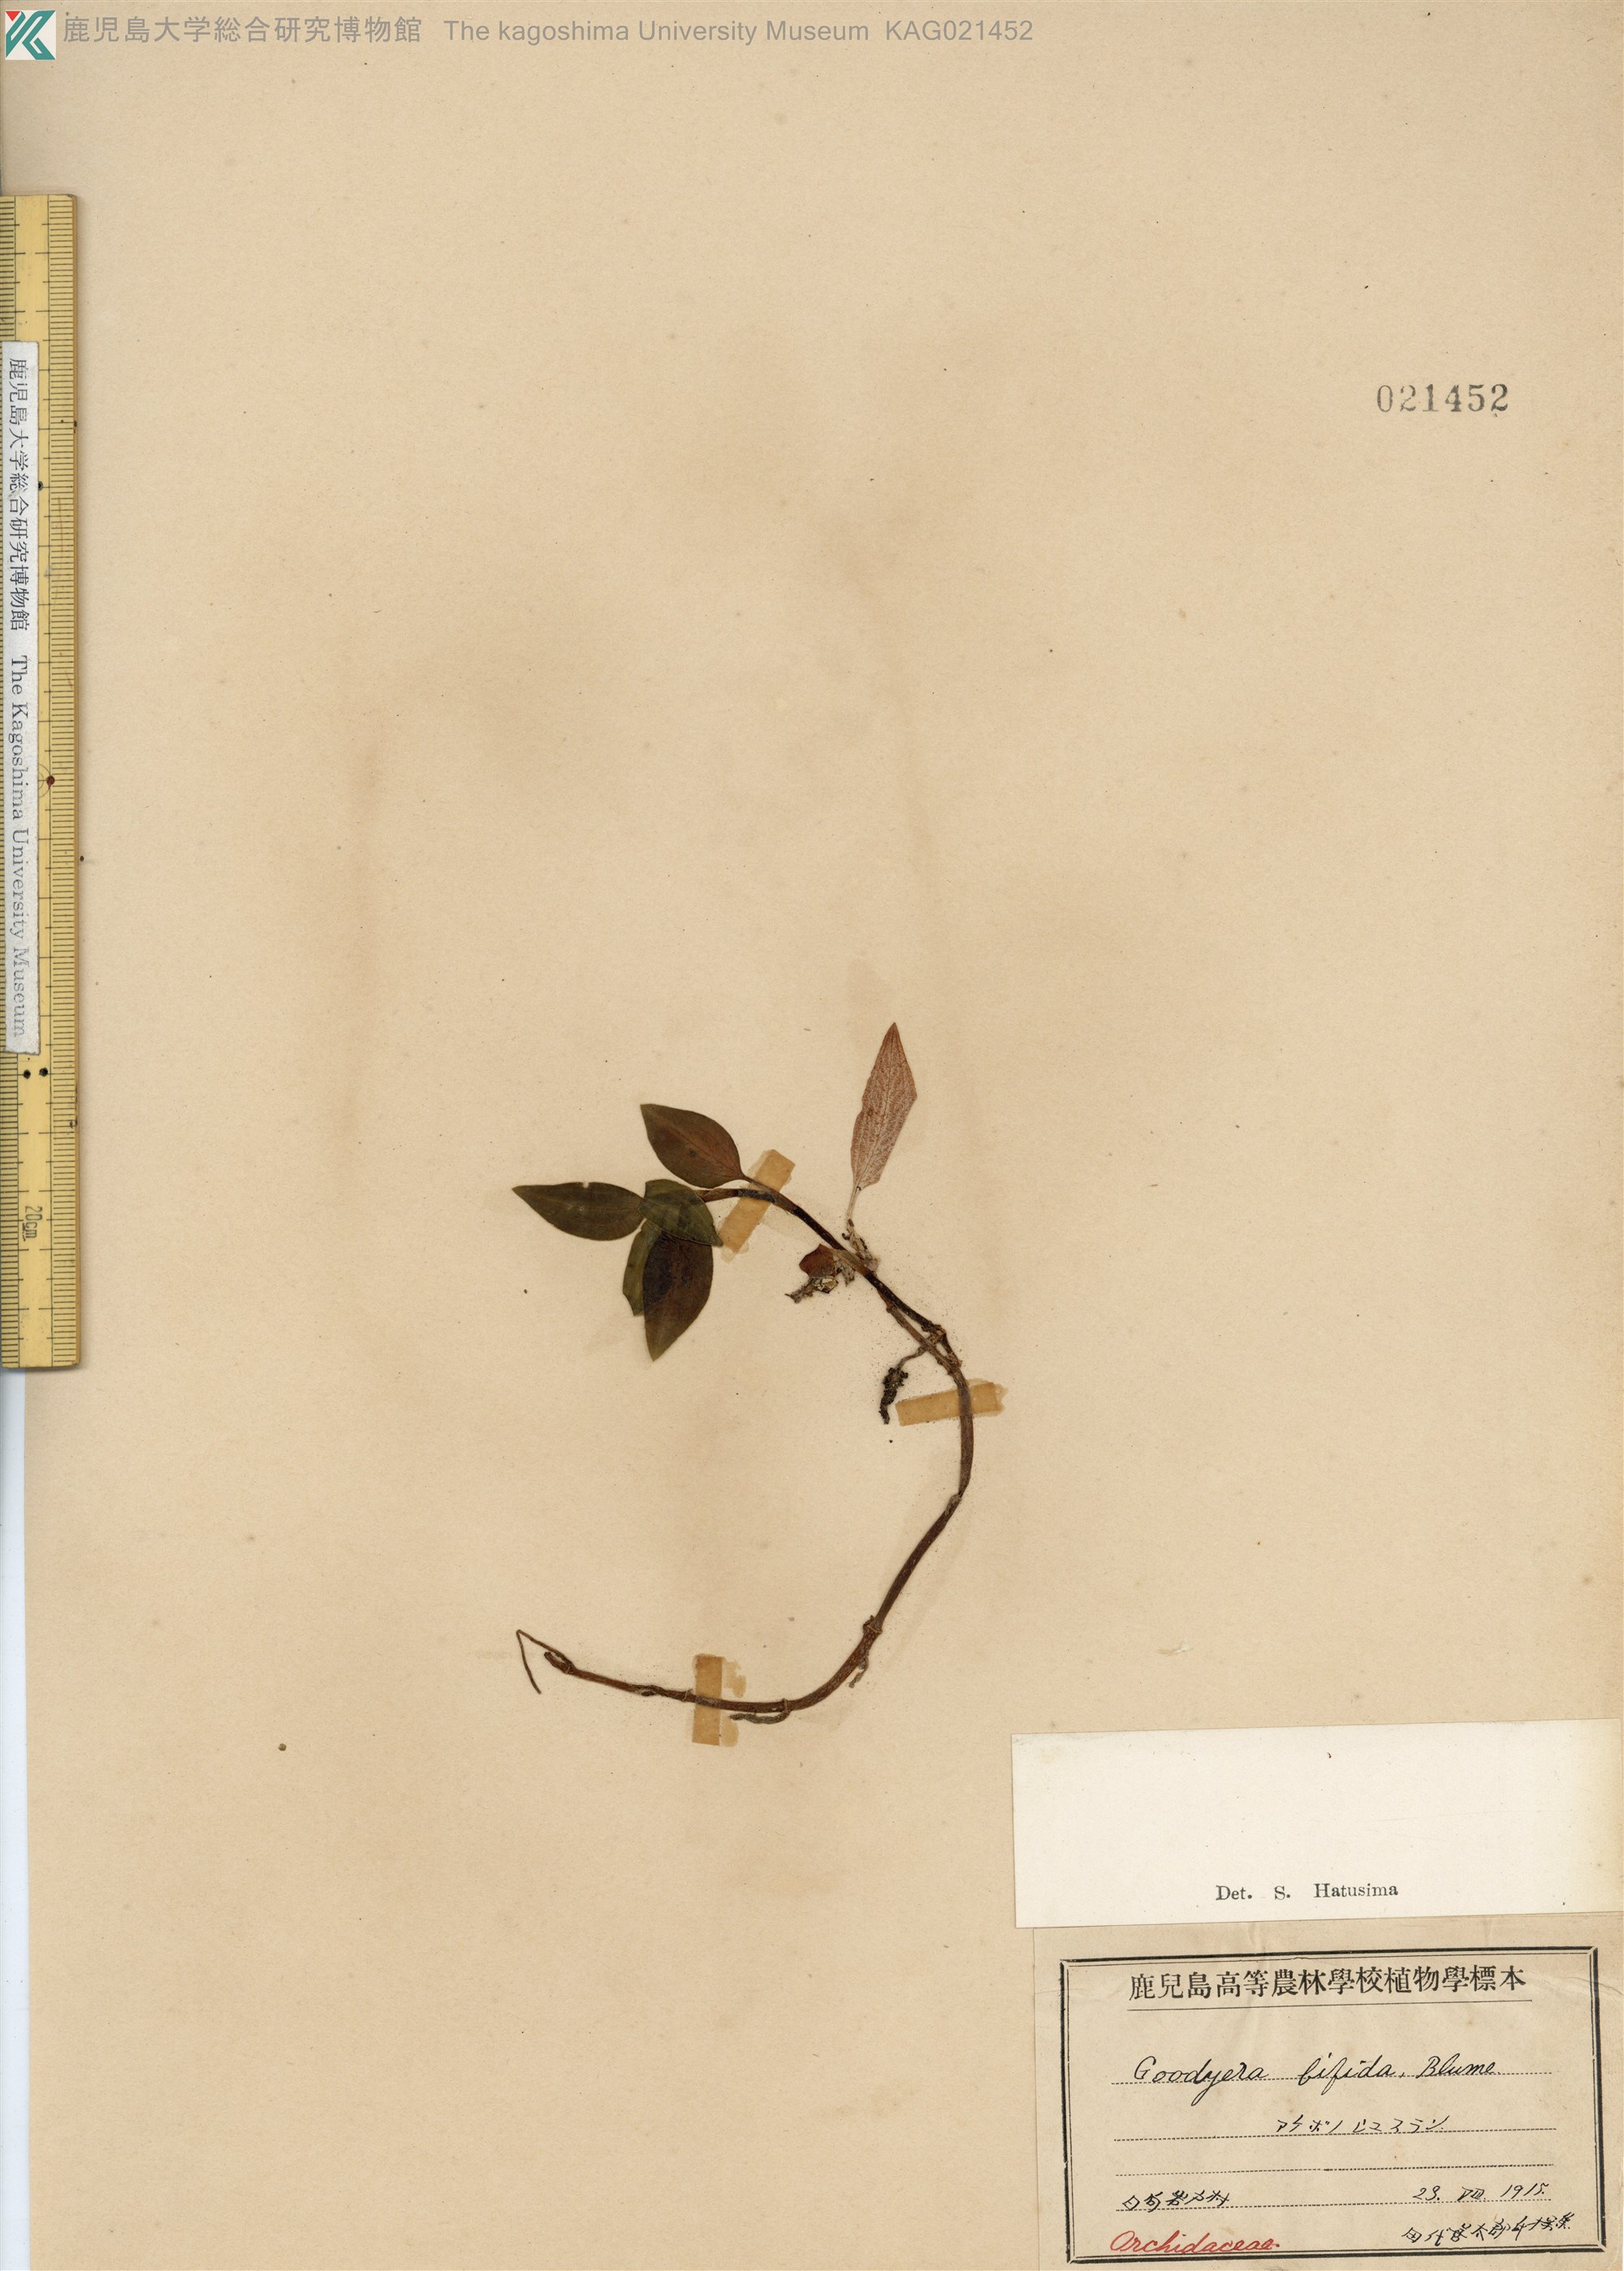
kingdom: Plantae
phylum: Tracheophyta
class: Liliopsida
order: Asparagales
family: Orchidaceae
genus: Goodyera
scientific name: Goodyera henryi
